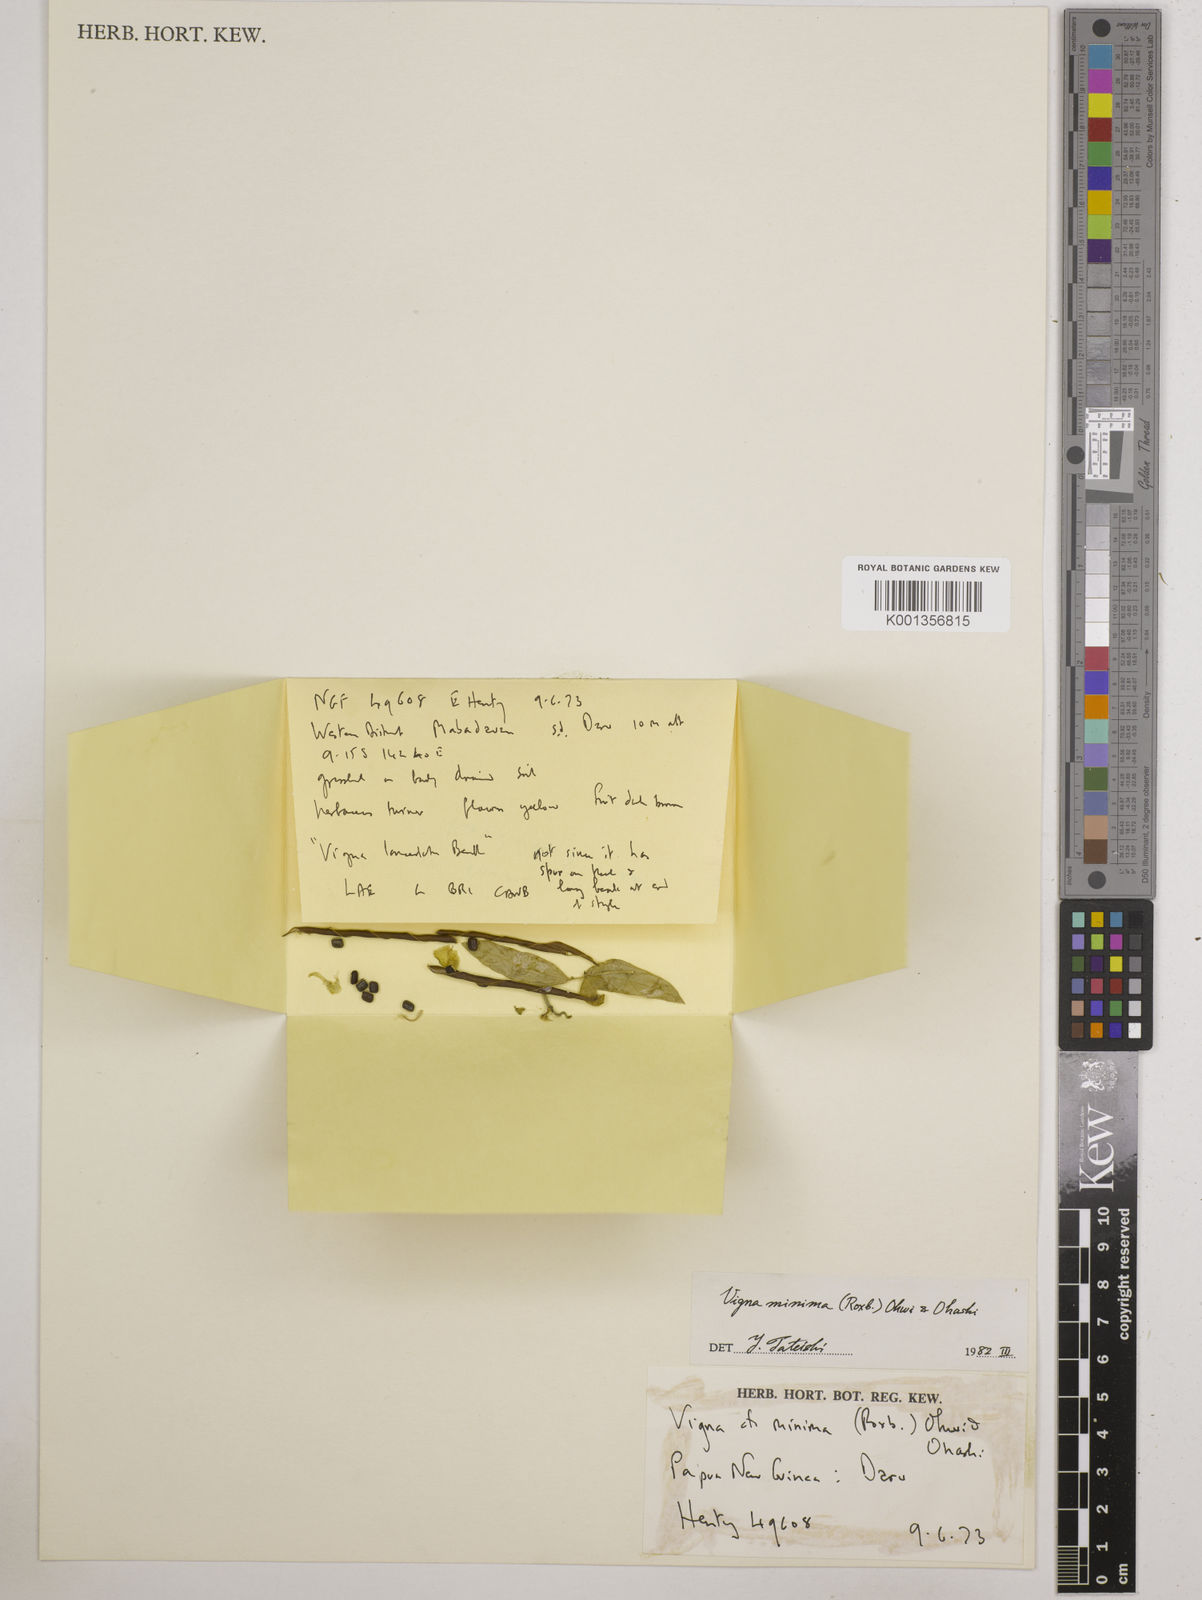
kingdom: Plantae
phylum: Tracheophyta
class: Magnoliopsida
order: Fabales
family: Fabaceae
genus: Vigna
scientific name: Vigna minima
